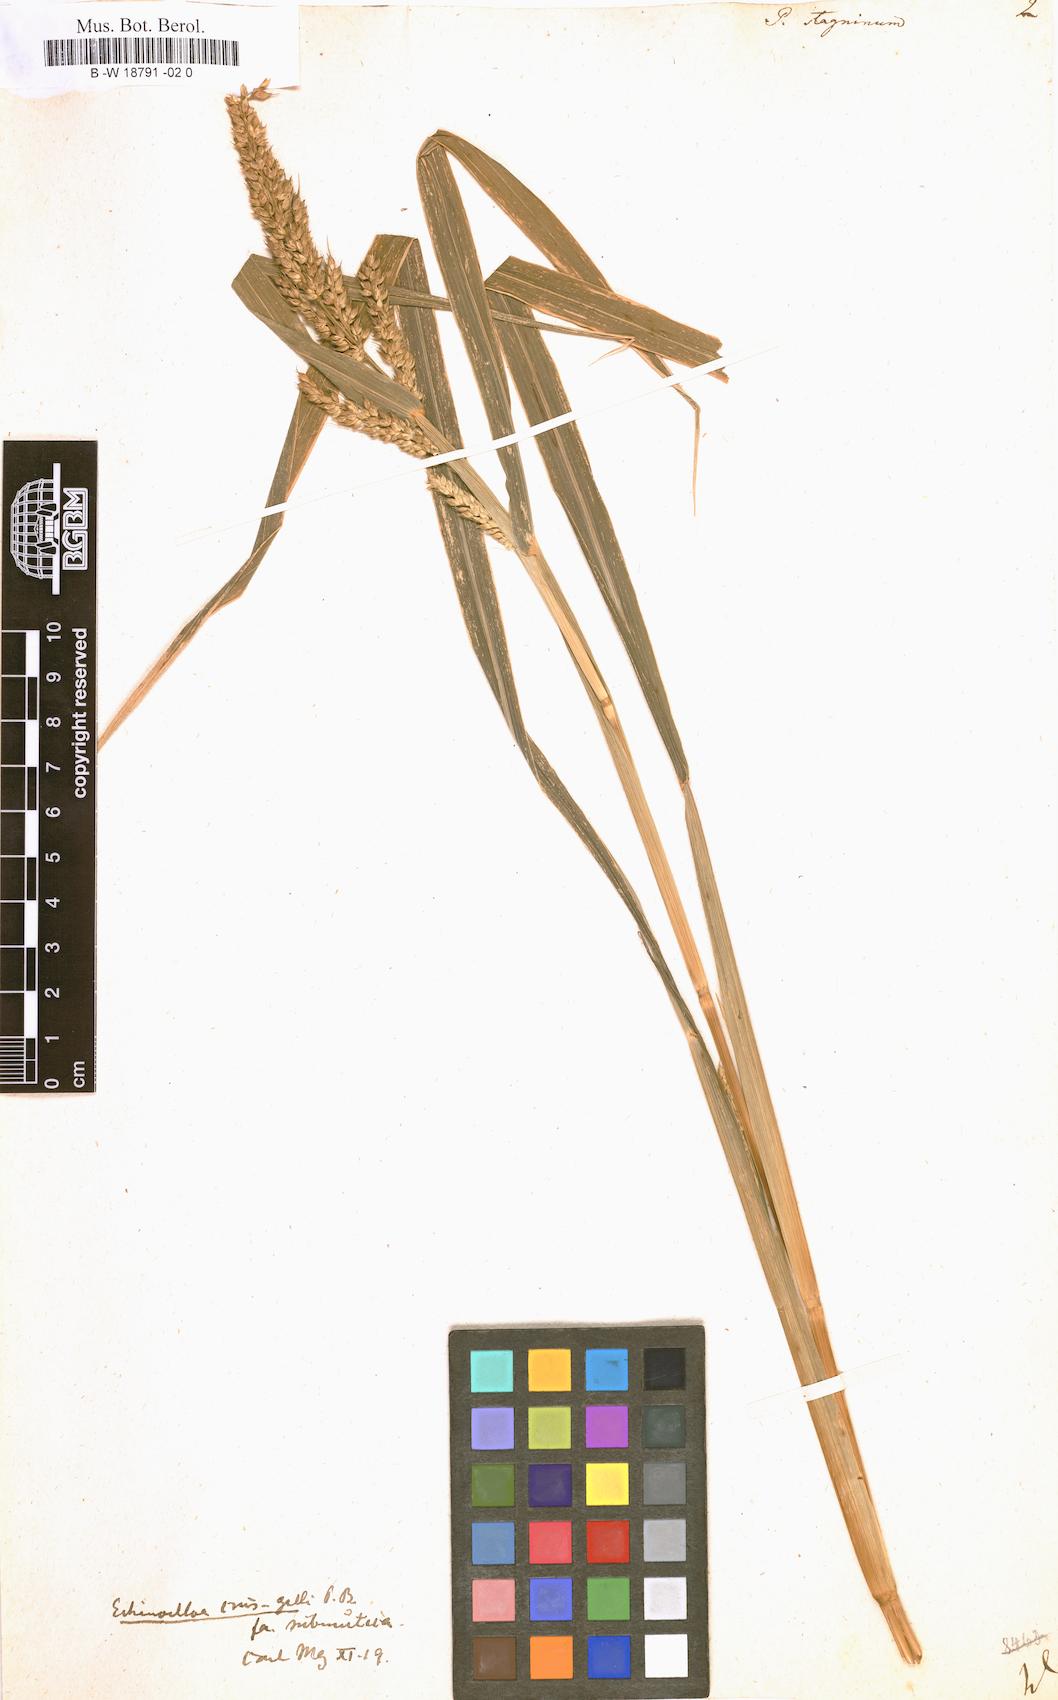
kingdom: Plantae
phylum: Tracheophyta
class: Liliopsida
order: Poales
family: Poaceae
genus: Echinochloa
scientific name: Echinochloa stagnina
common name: Burgu grass
